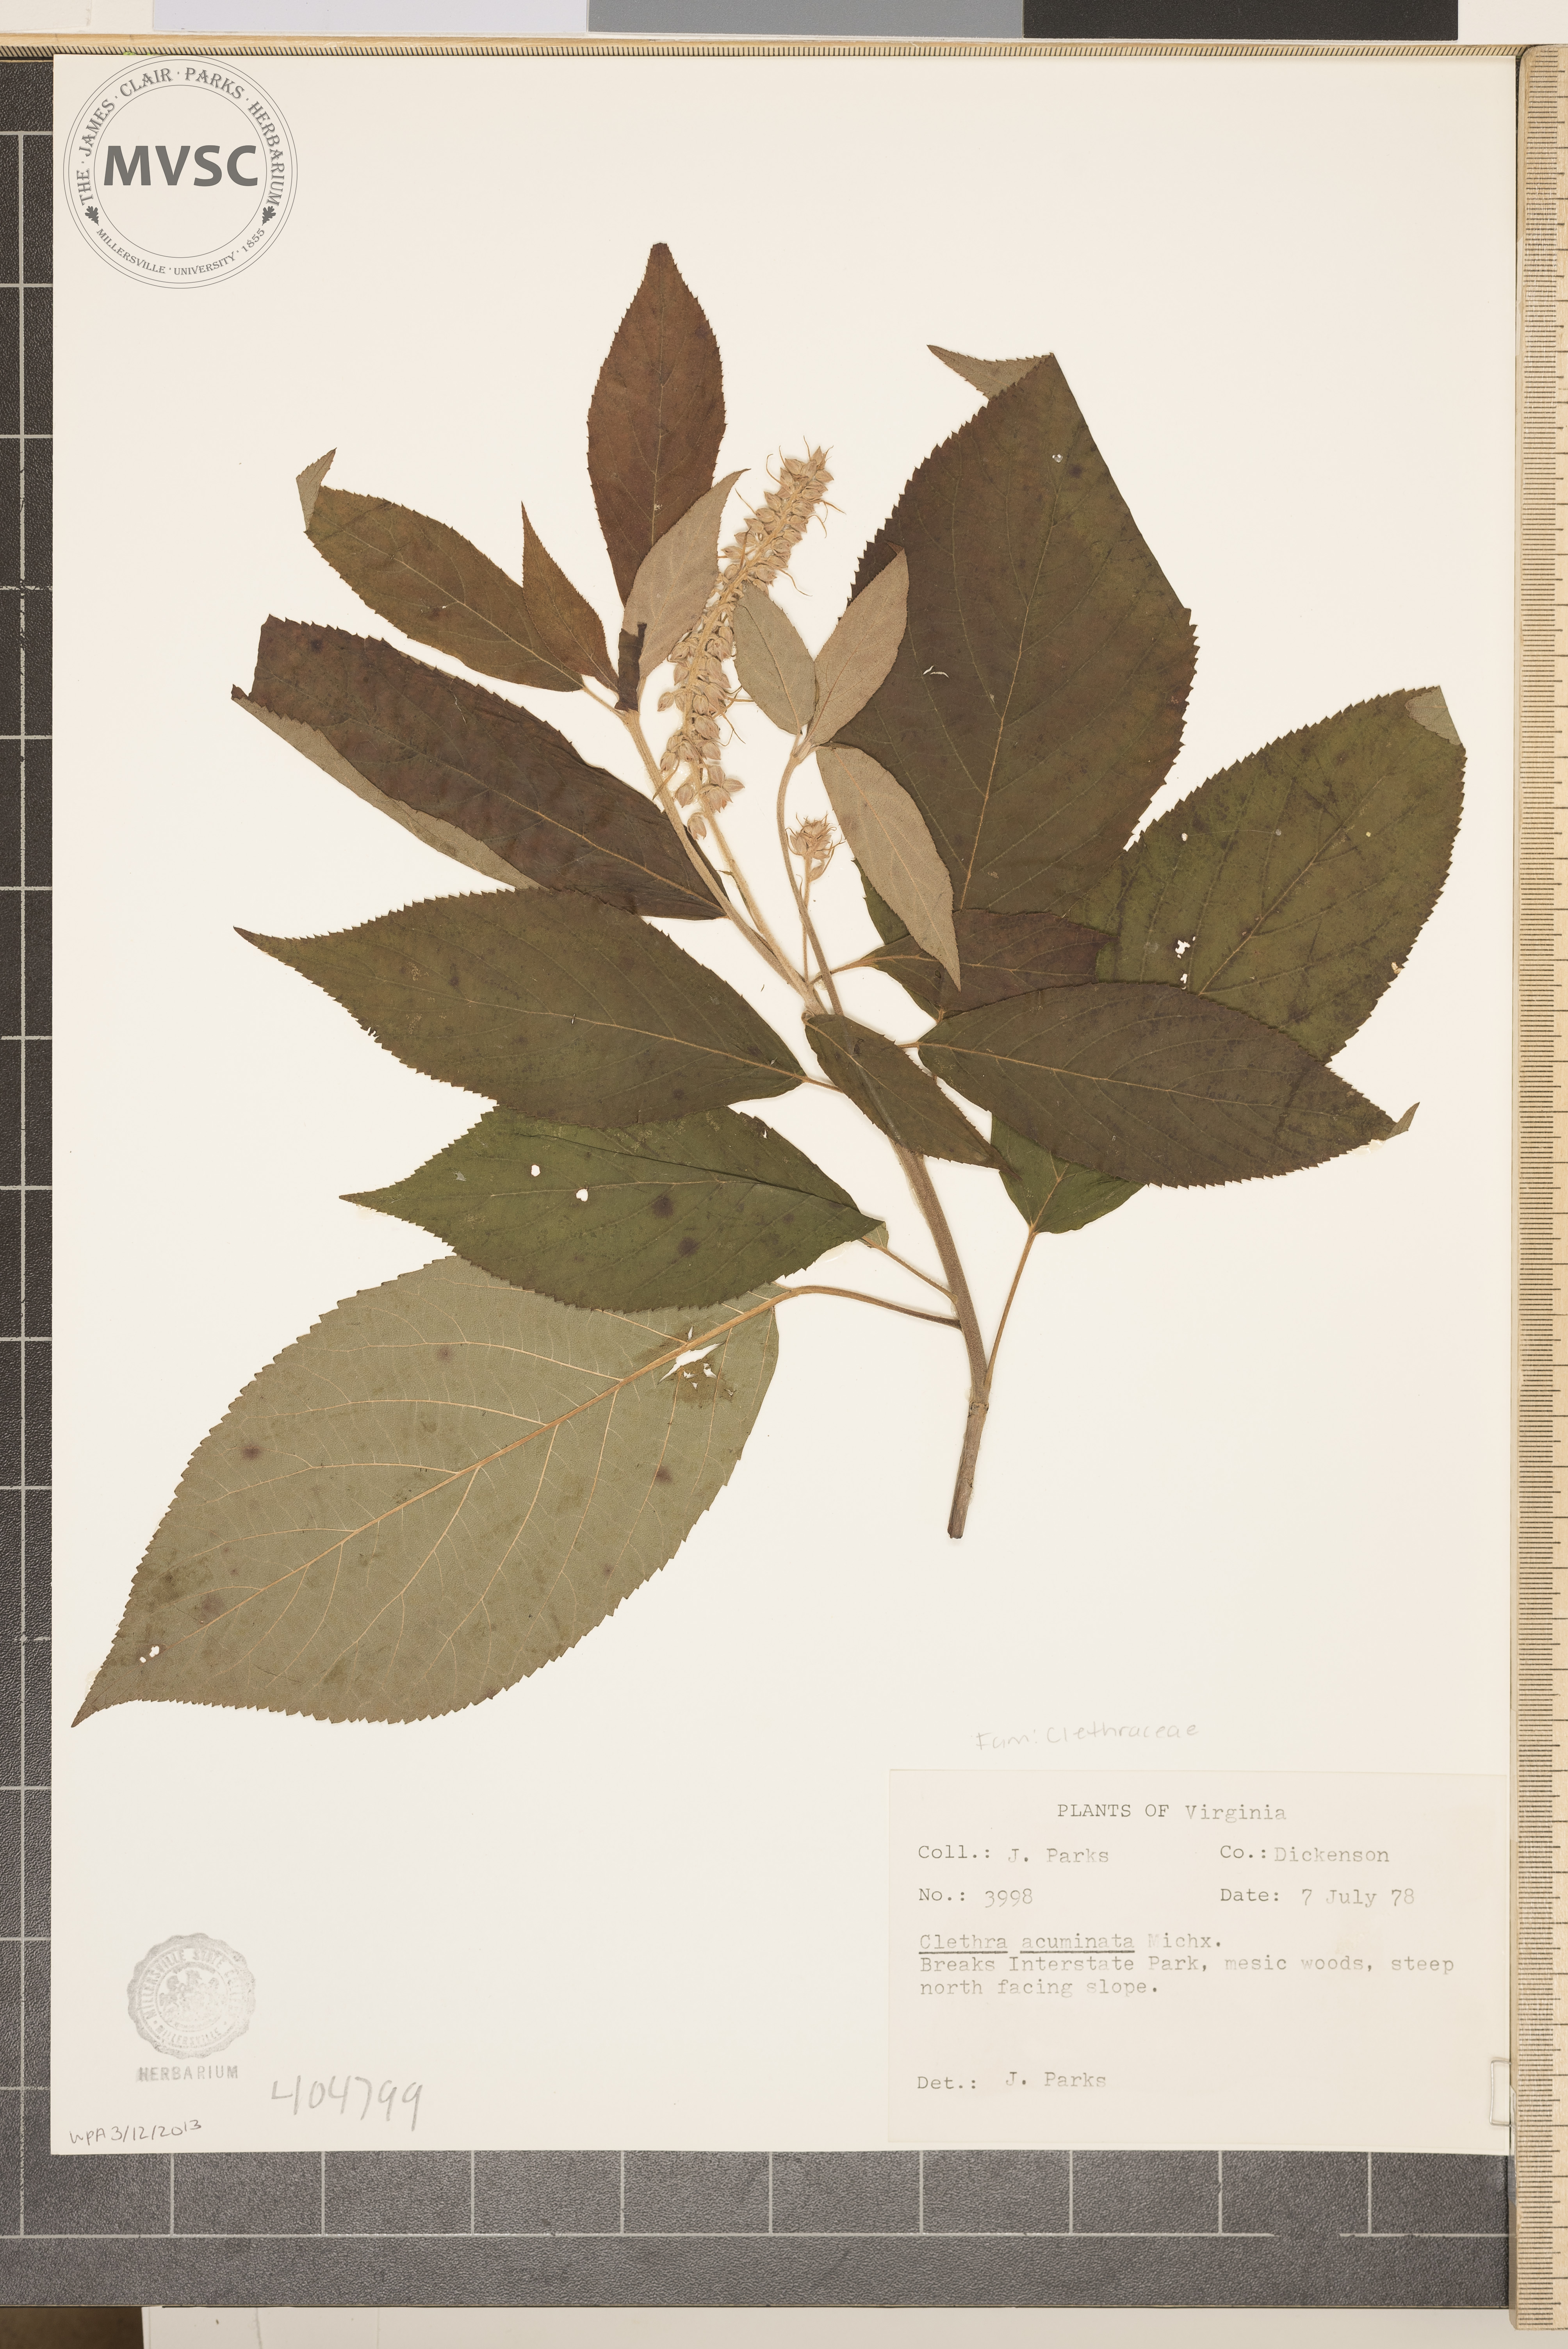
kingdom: Plantae
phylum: Tracheophyta
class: Magnoliopsida
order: Ericales
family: Clethraceae
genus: Clethra
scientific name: Clethra acuminata
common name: Mountain sweet pepperbush
